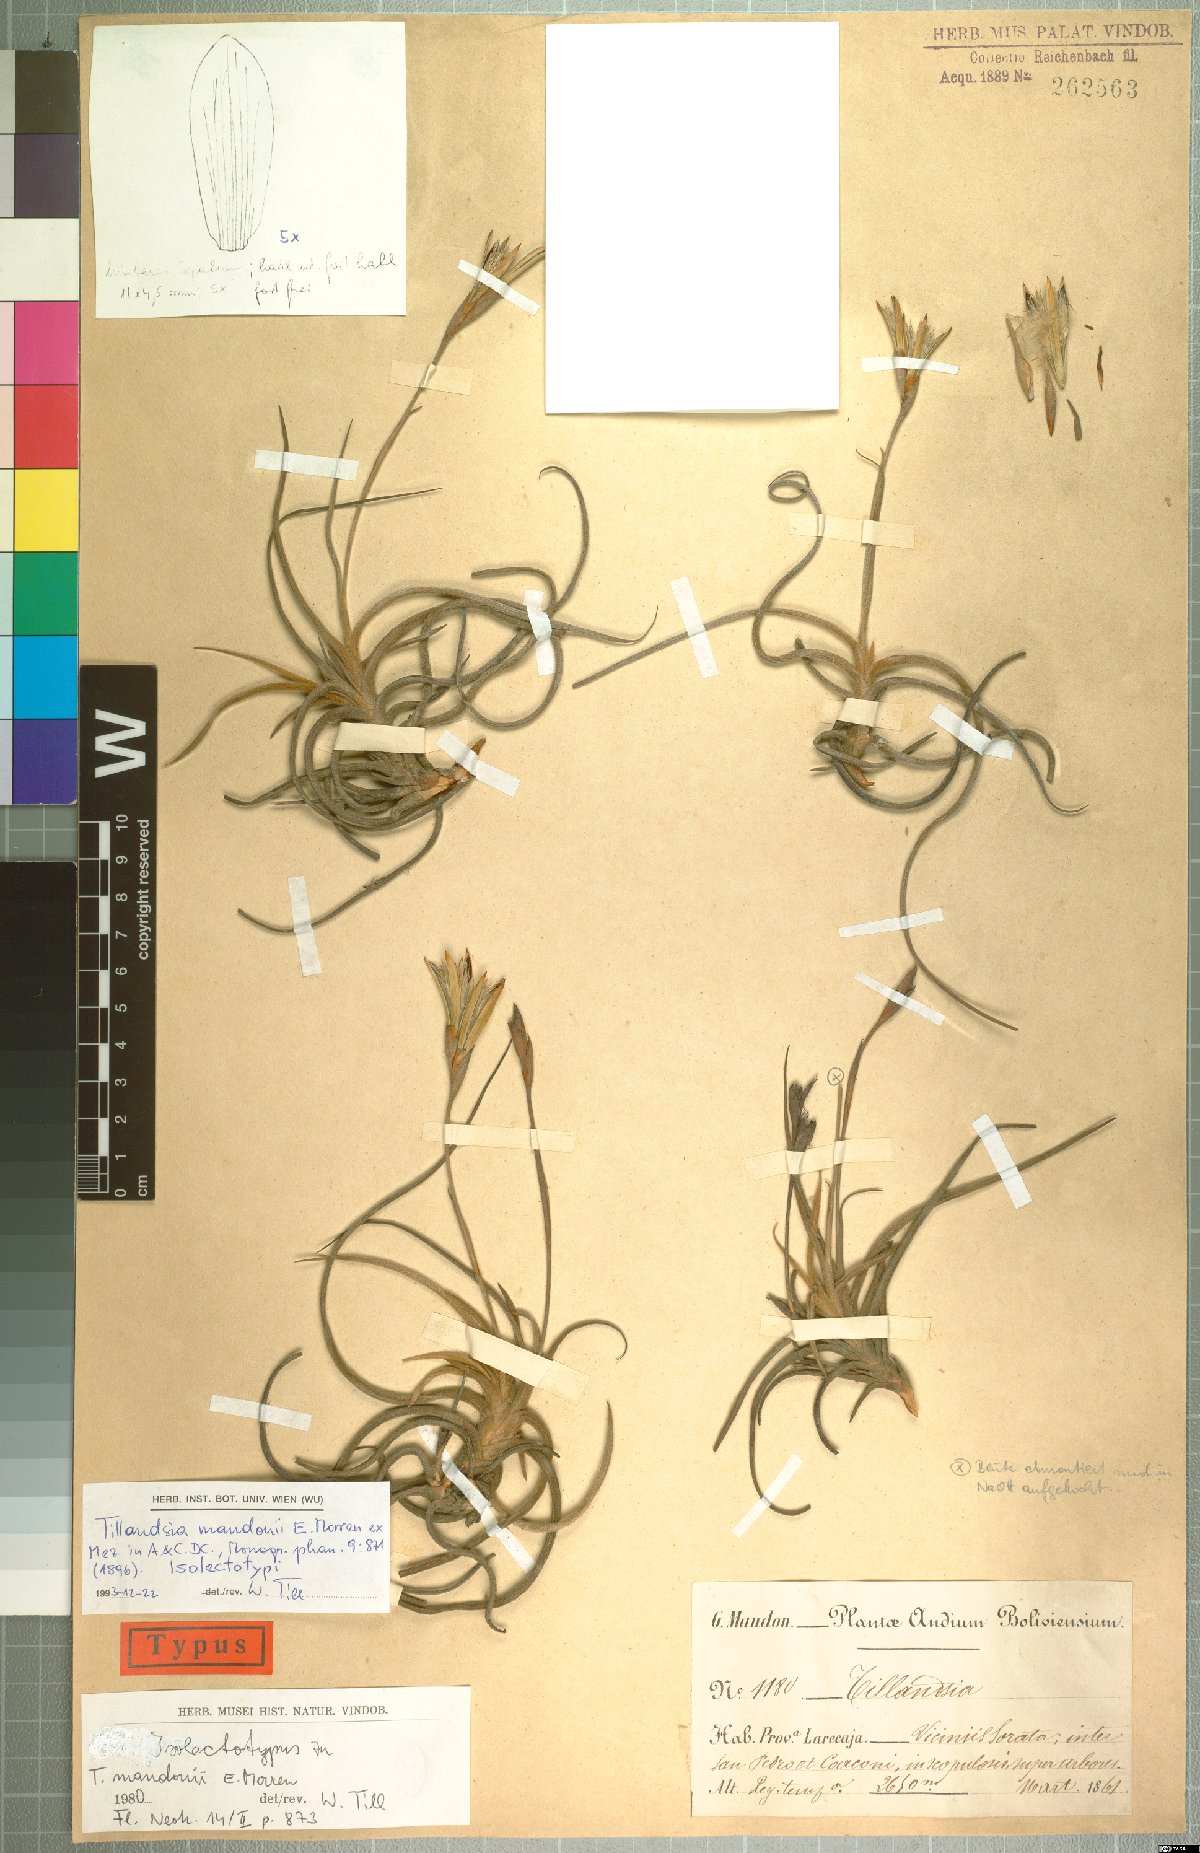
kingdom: Plantae
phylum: Tracheophyta
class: Liliopsida
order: Poales
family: Bromeliaceae
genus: Tillandsia
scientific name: Tillandsia crocata
